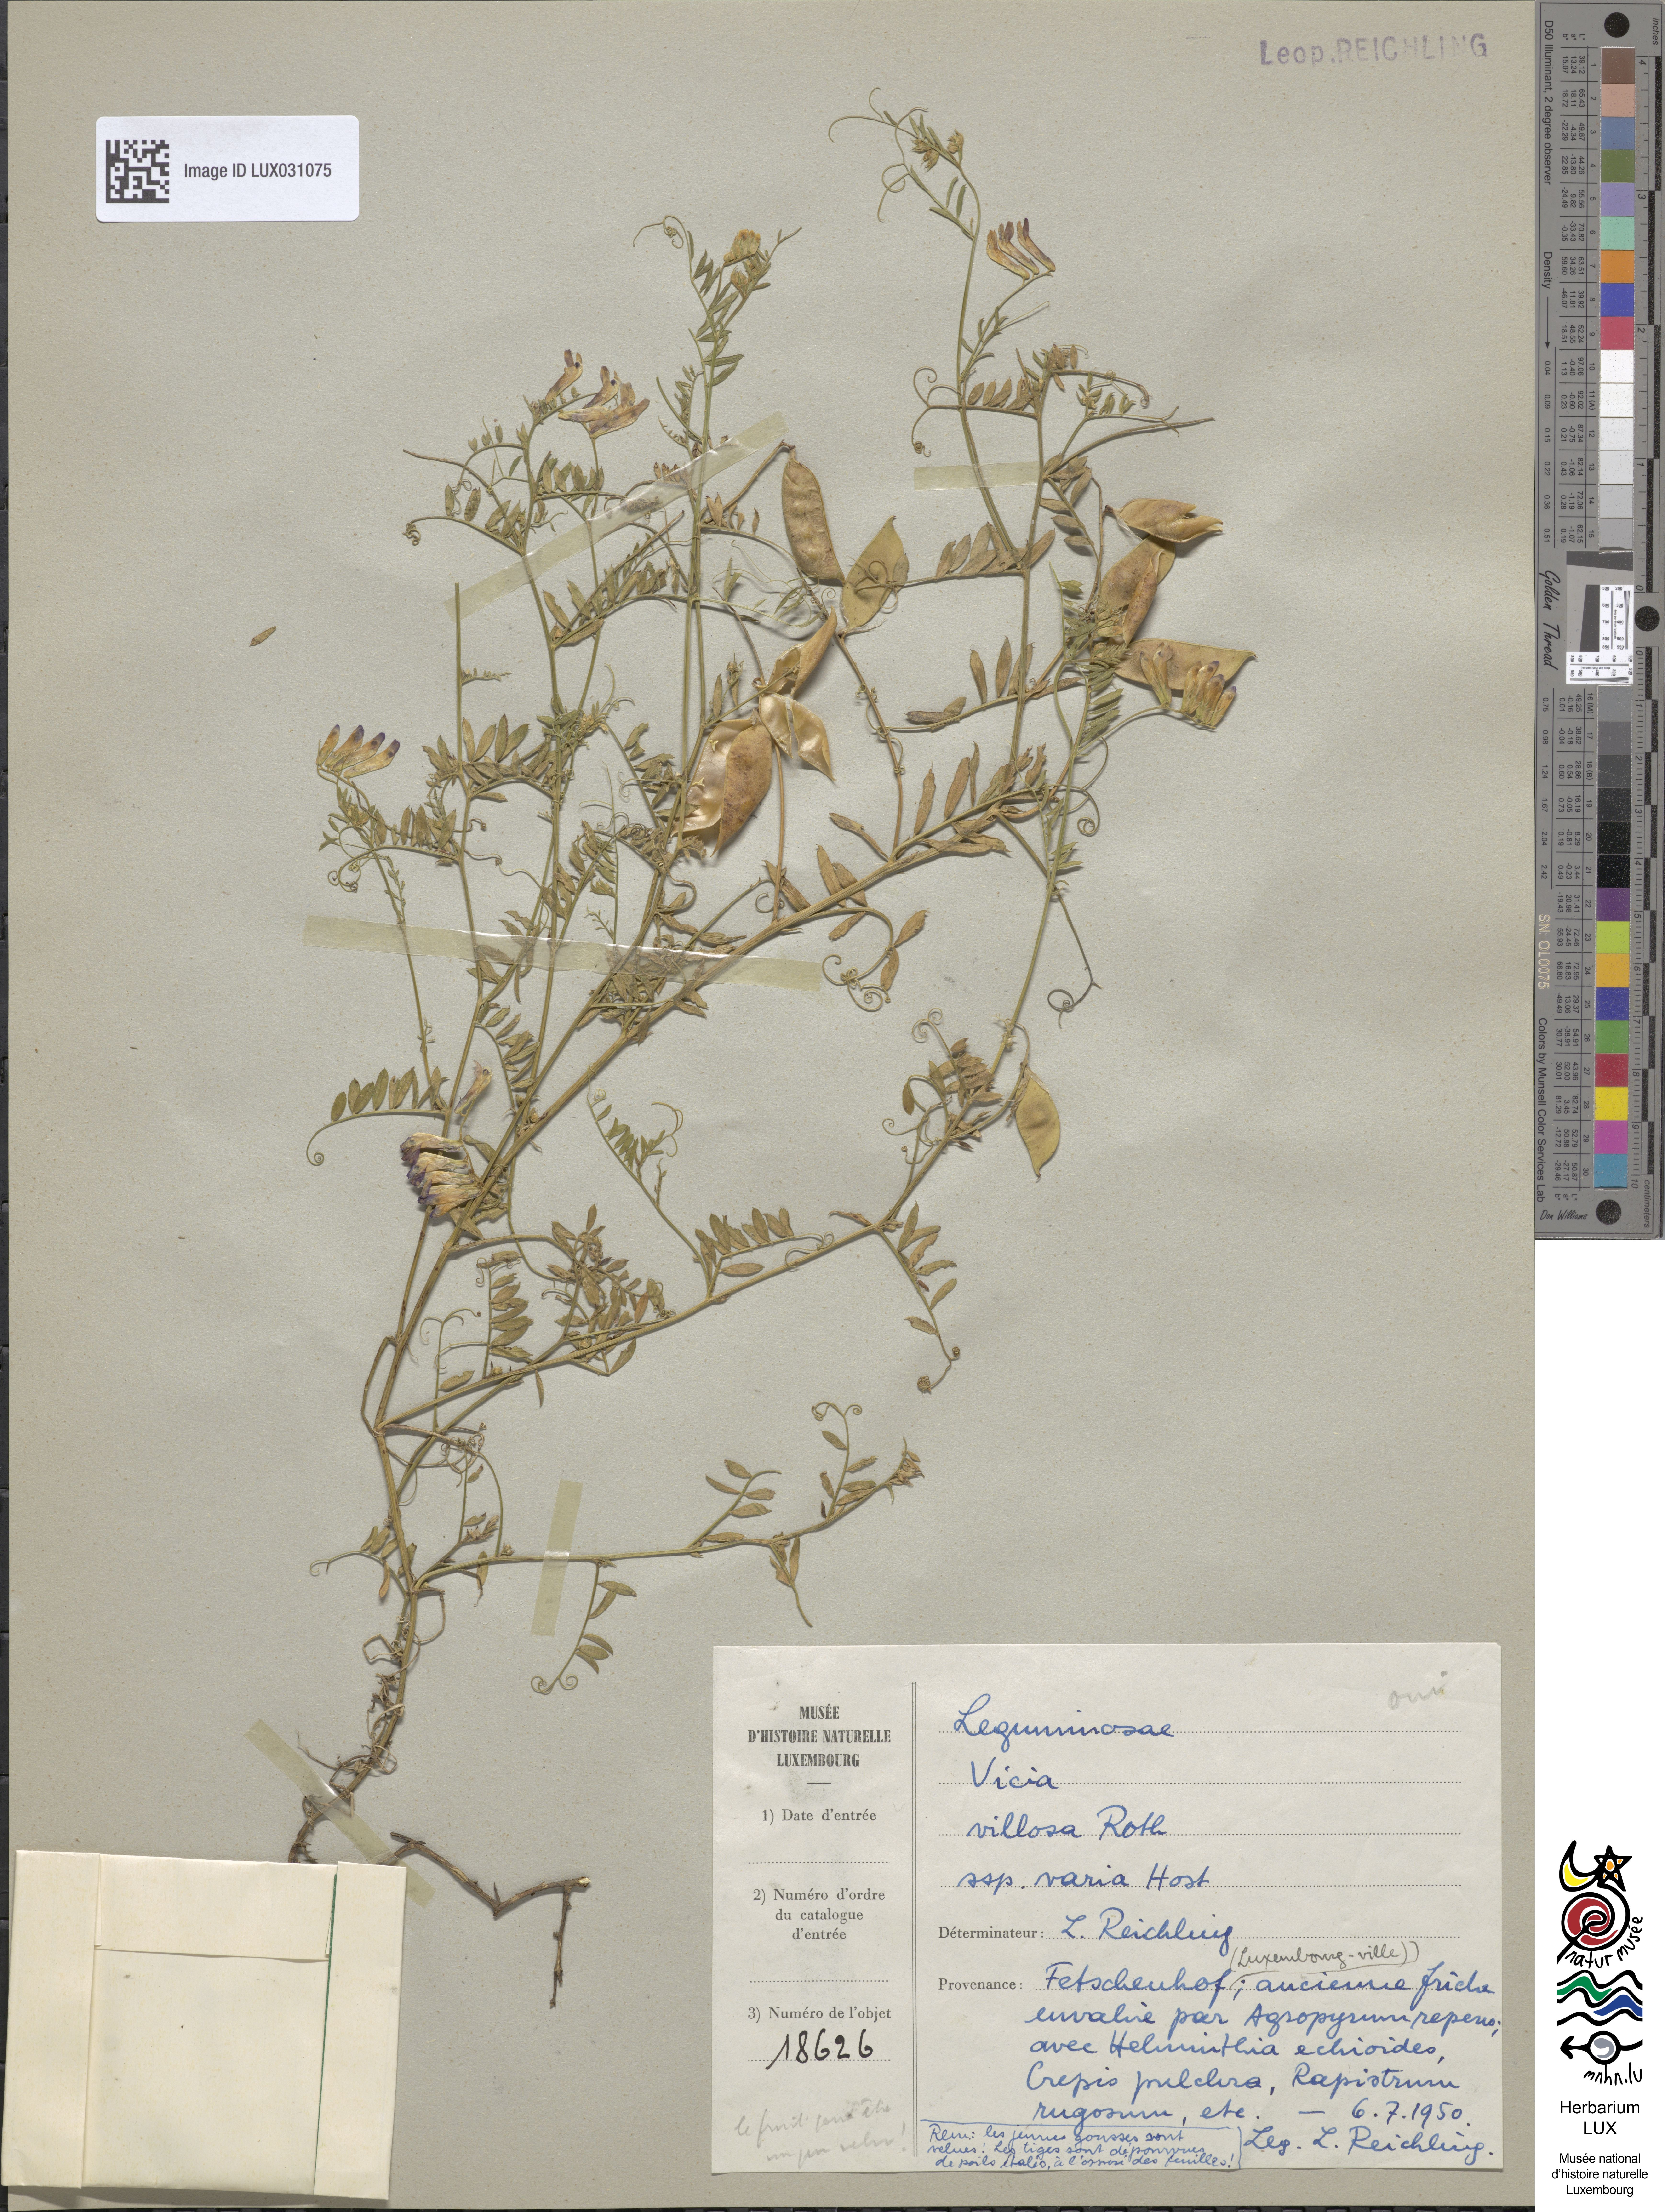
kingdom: Plantae
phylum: Tracheophyta
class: Magnoliopsida
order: Fabales
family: Fabaceae
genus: Vicia
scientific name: Vicia villosa
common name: Fodder vetch
